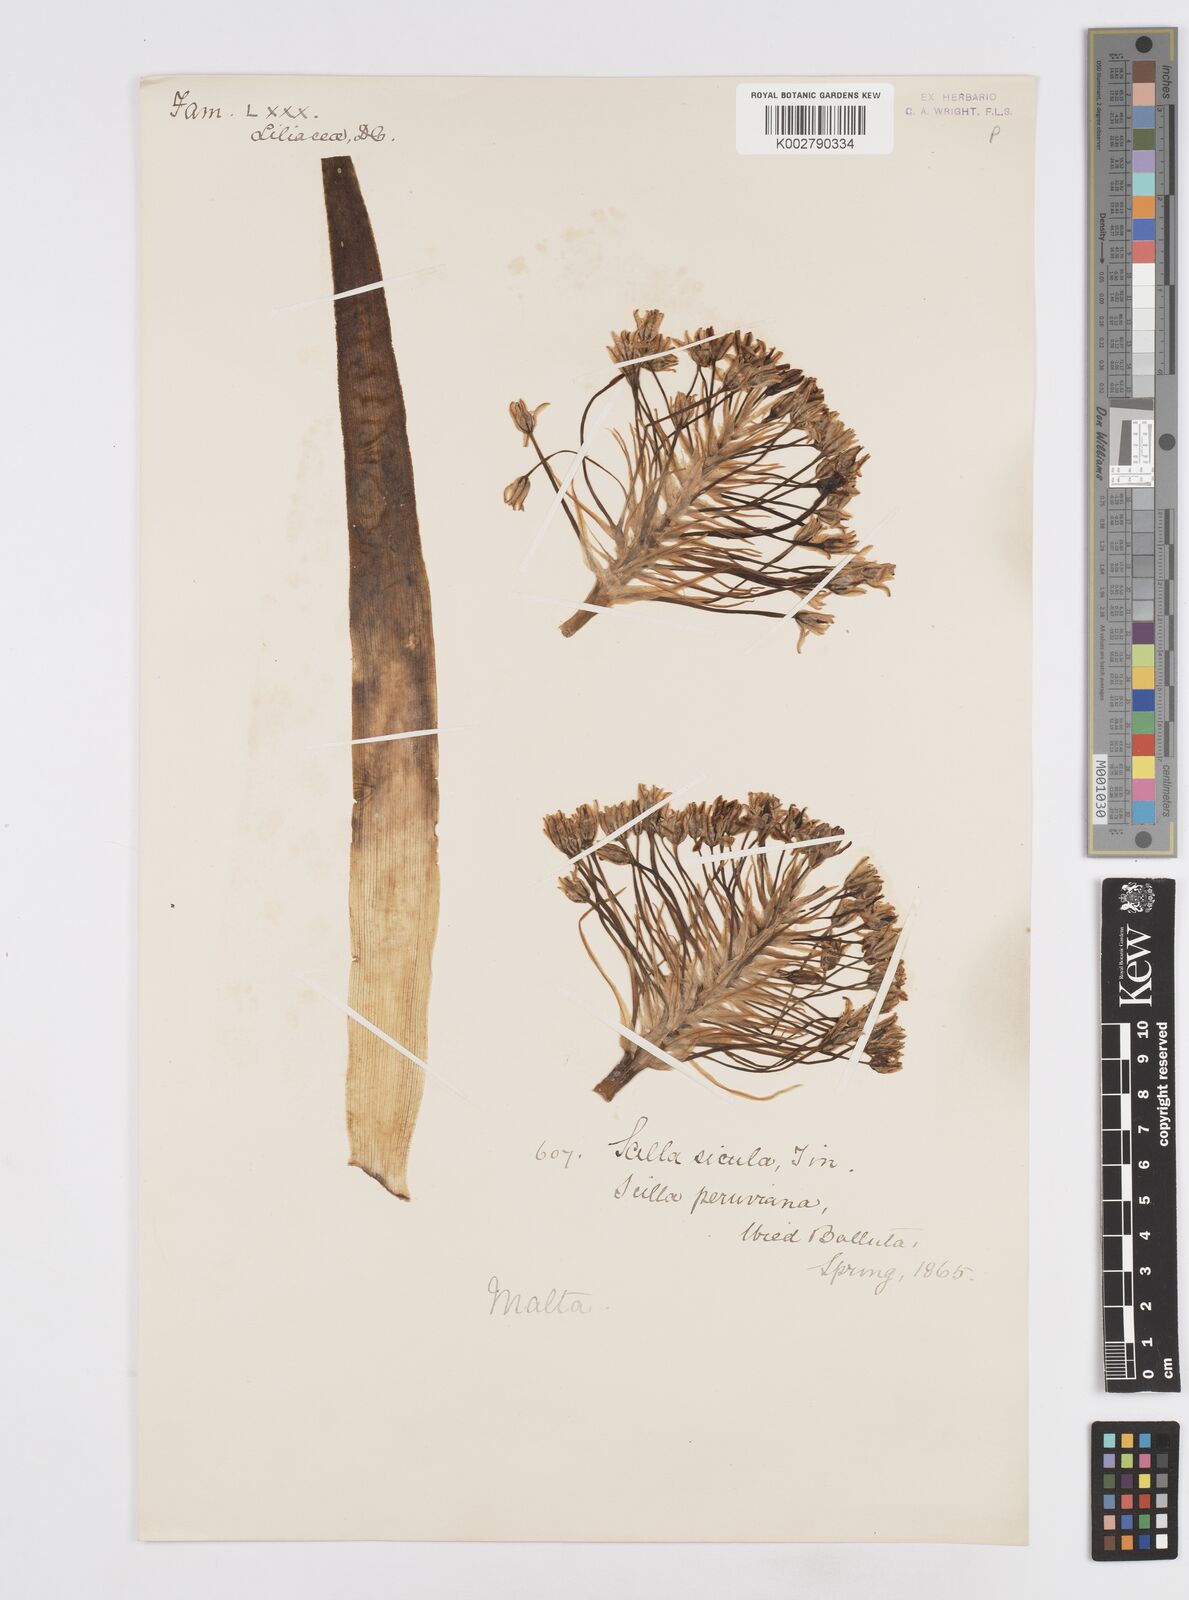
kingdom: Plantae
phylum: Tracheophyta
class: Liliopsida
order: Asparagales
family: Asparagaceae
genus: Scilla
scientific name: Scilla peruviana
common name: Portuguese squill
